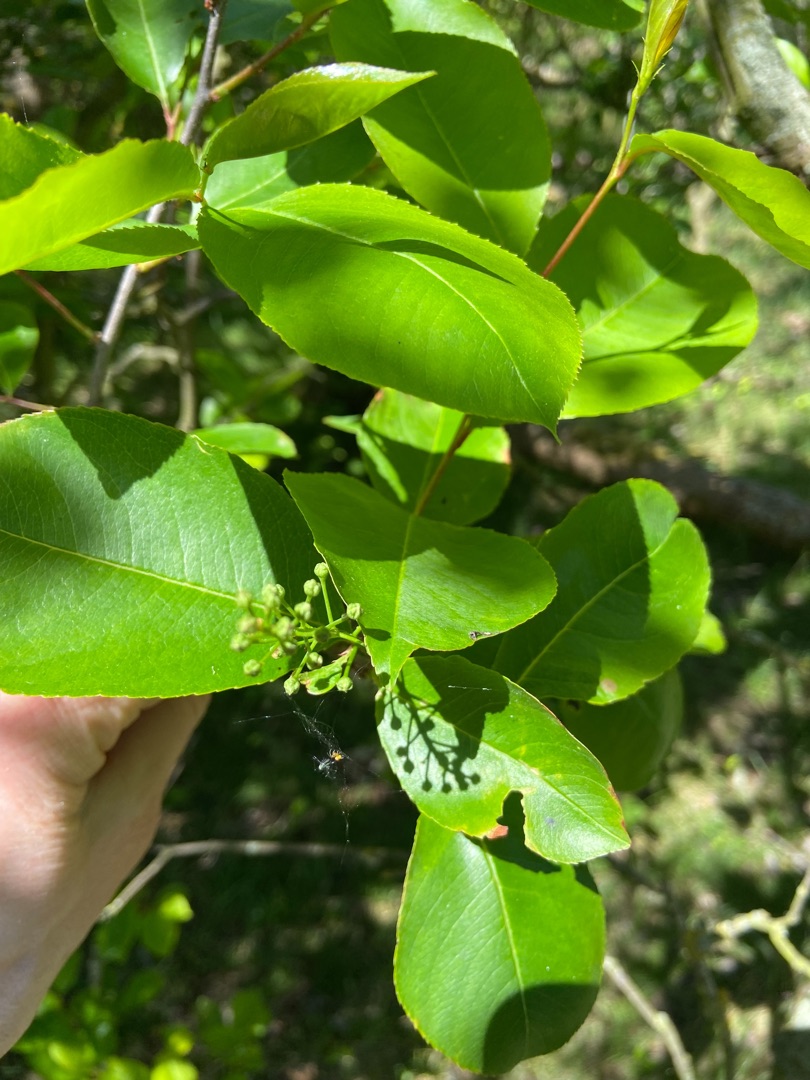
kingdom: Plantae
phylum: Tracheophyta
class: Magnoliopsida
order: Rosales
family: Rosaceae
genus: Prunus
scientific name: Prunus serotina
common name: Glansbladet hæg
